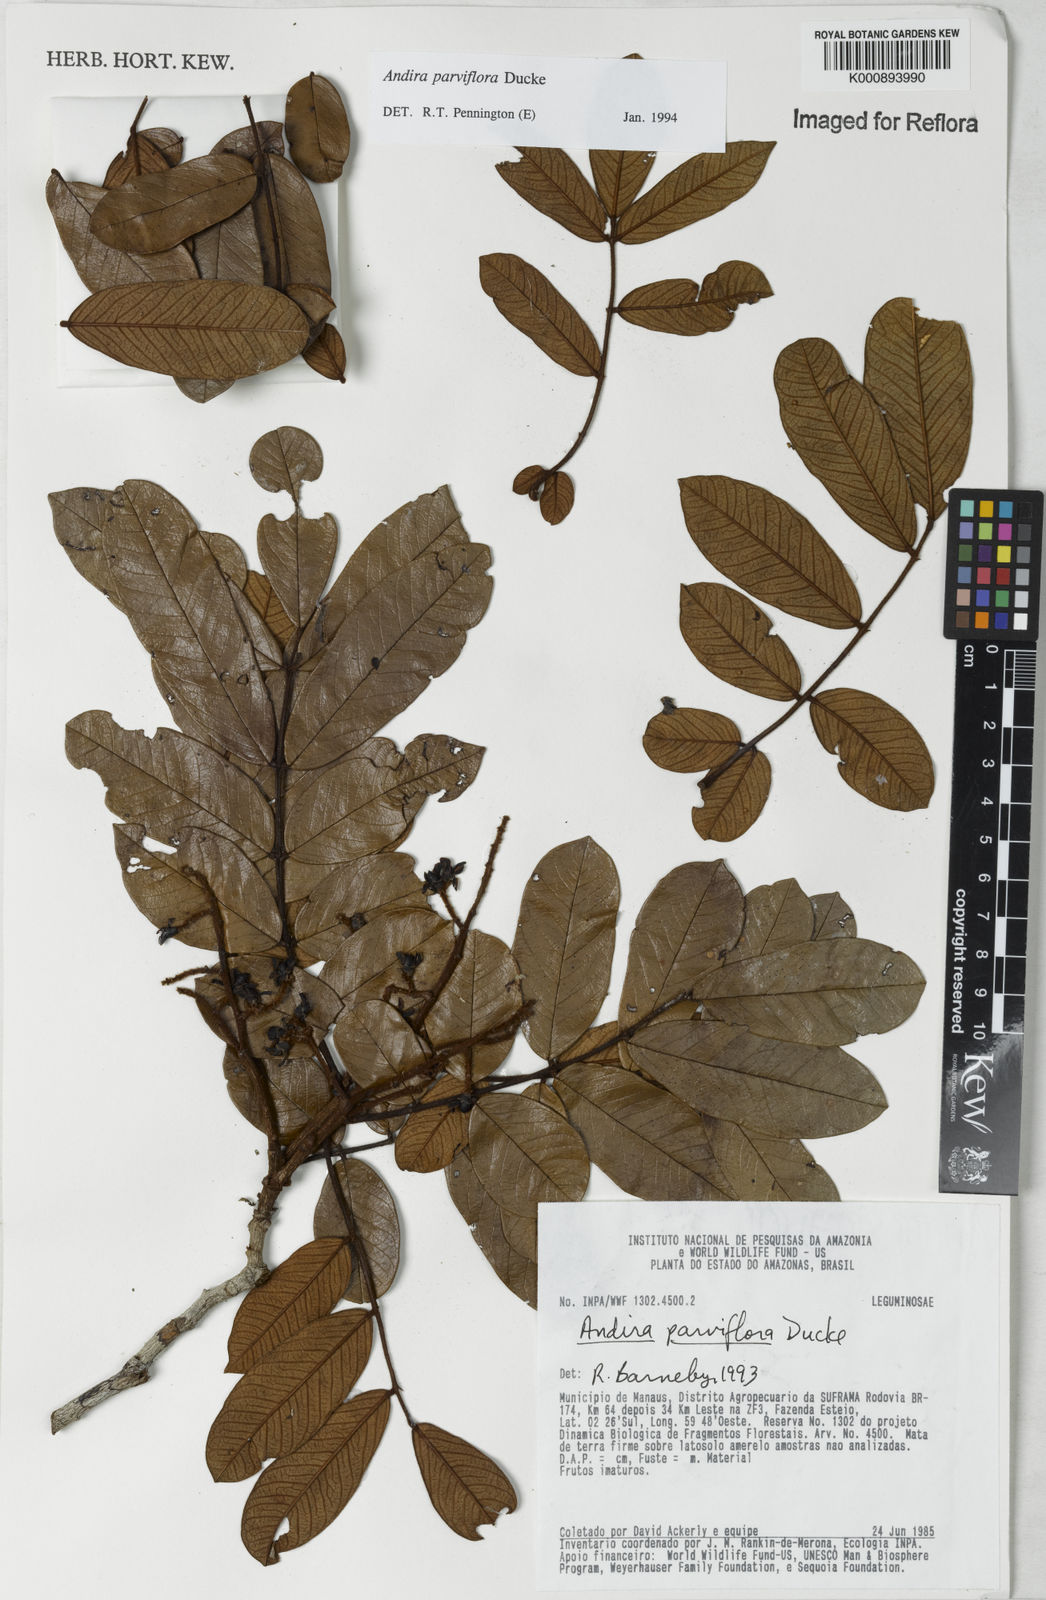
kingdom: Plantae
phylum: Tracheophyta
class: Magnoliopsida
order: Fabales
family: Fabaceae
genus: Andira
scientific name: Andira parviflora
